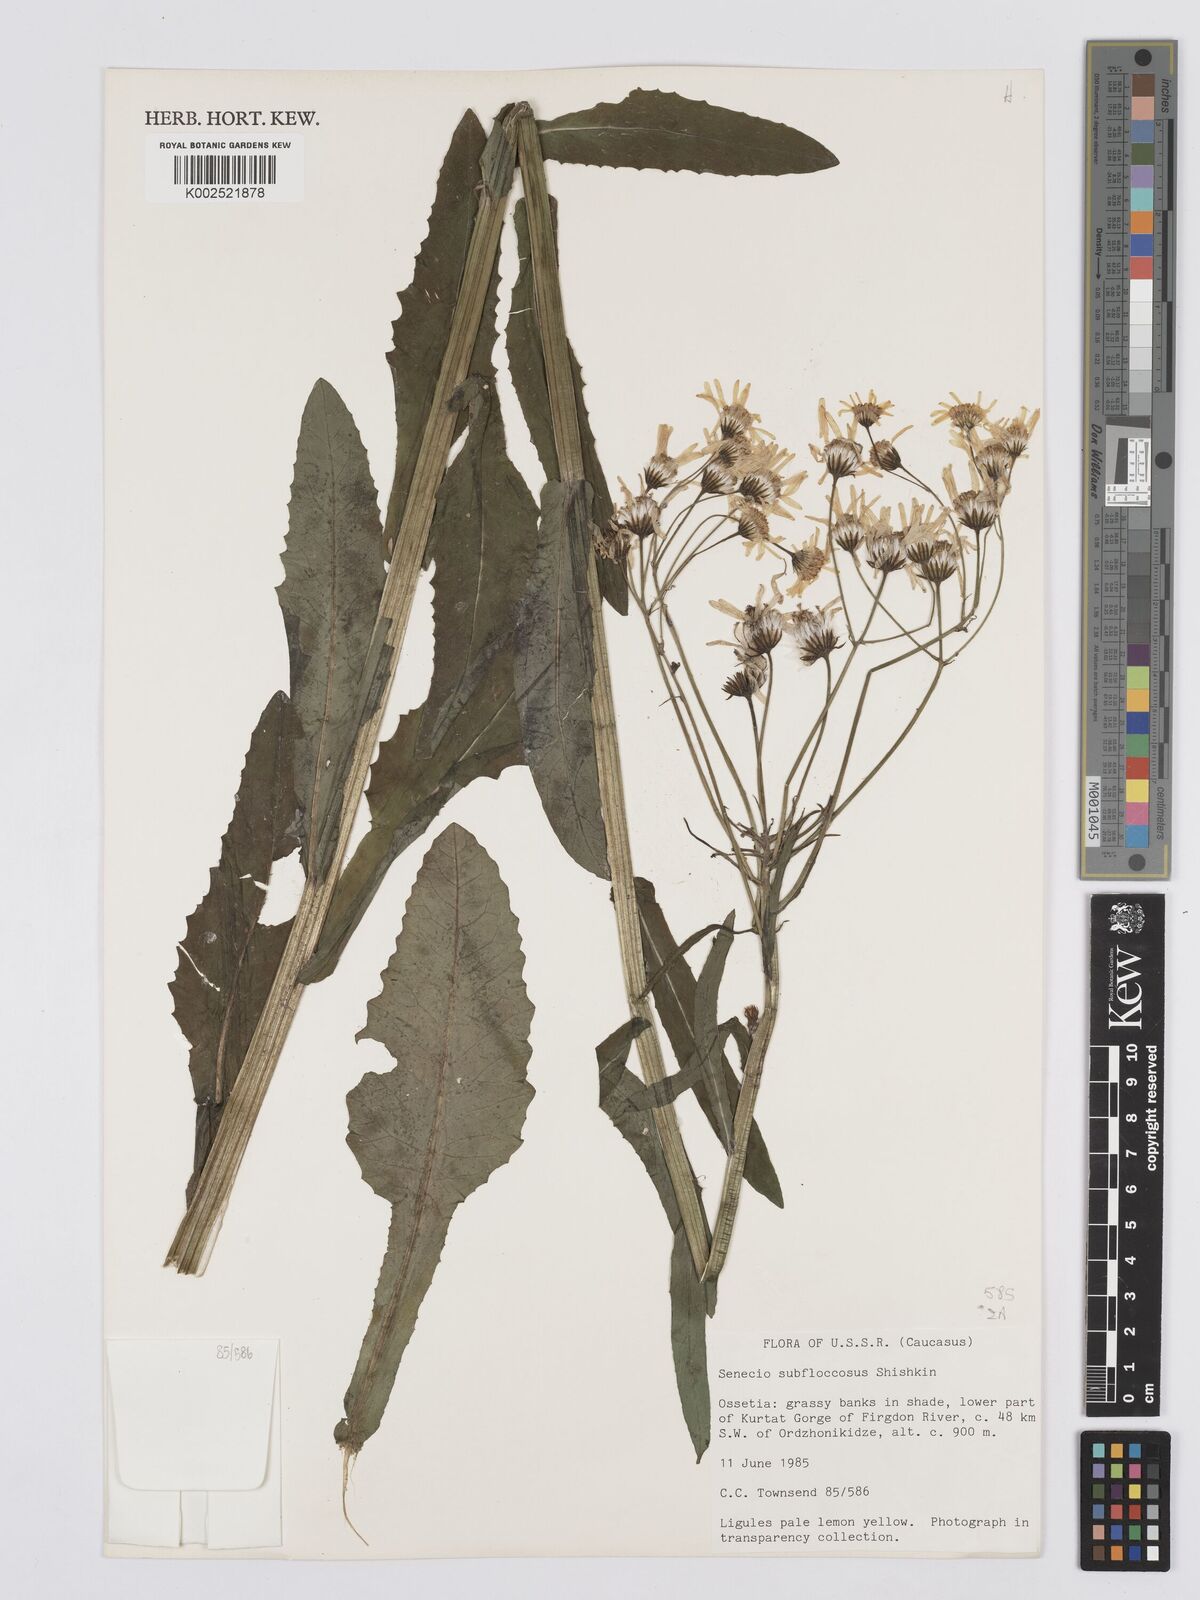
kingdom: Plantae
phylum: Tracheophyta
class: Magnoliopsida
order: Asterales
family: Asteraceae
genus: Tephroseris
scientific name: Tephroseris cladobotrys
